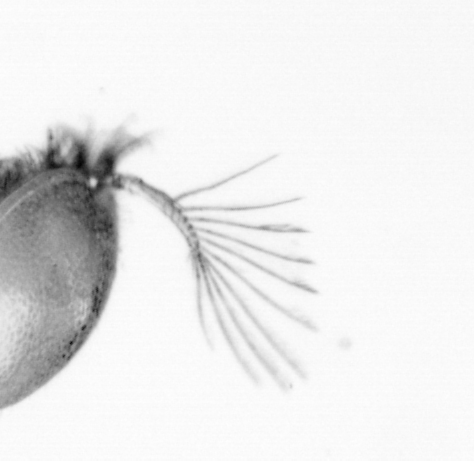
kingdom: Animalia
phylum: Arthropoda
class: Copepoda
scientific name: Copepoda
